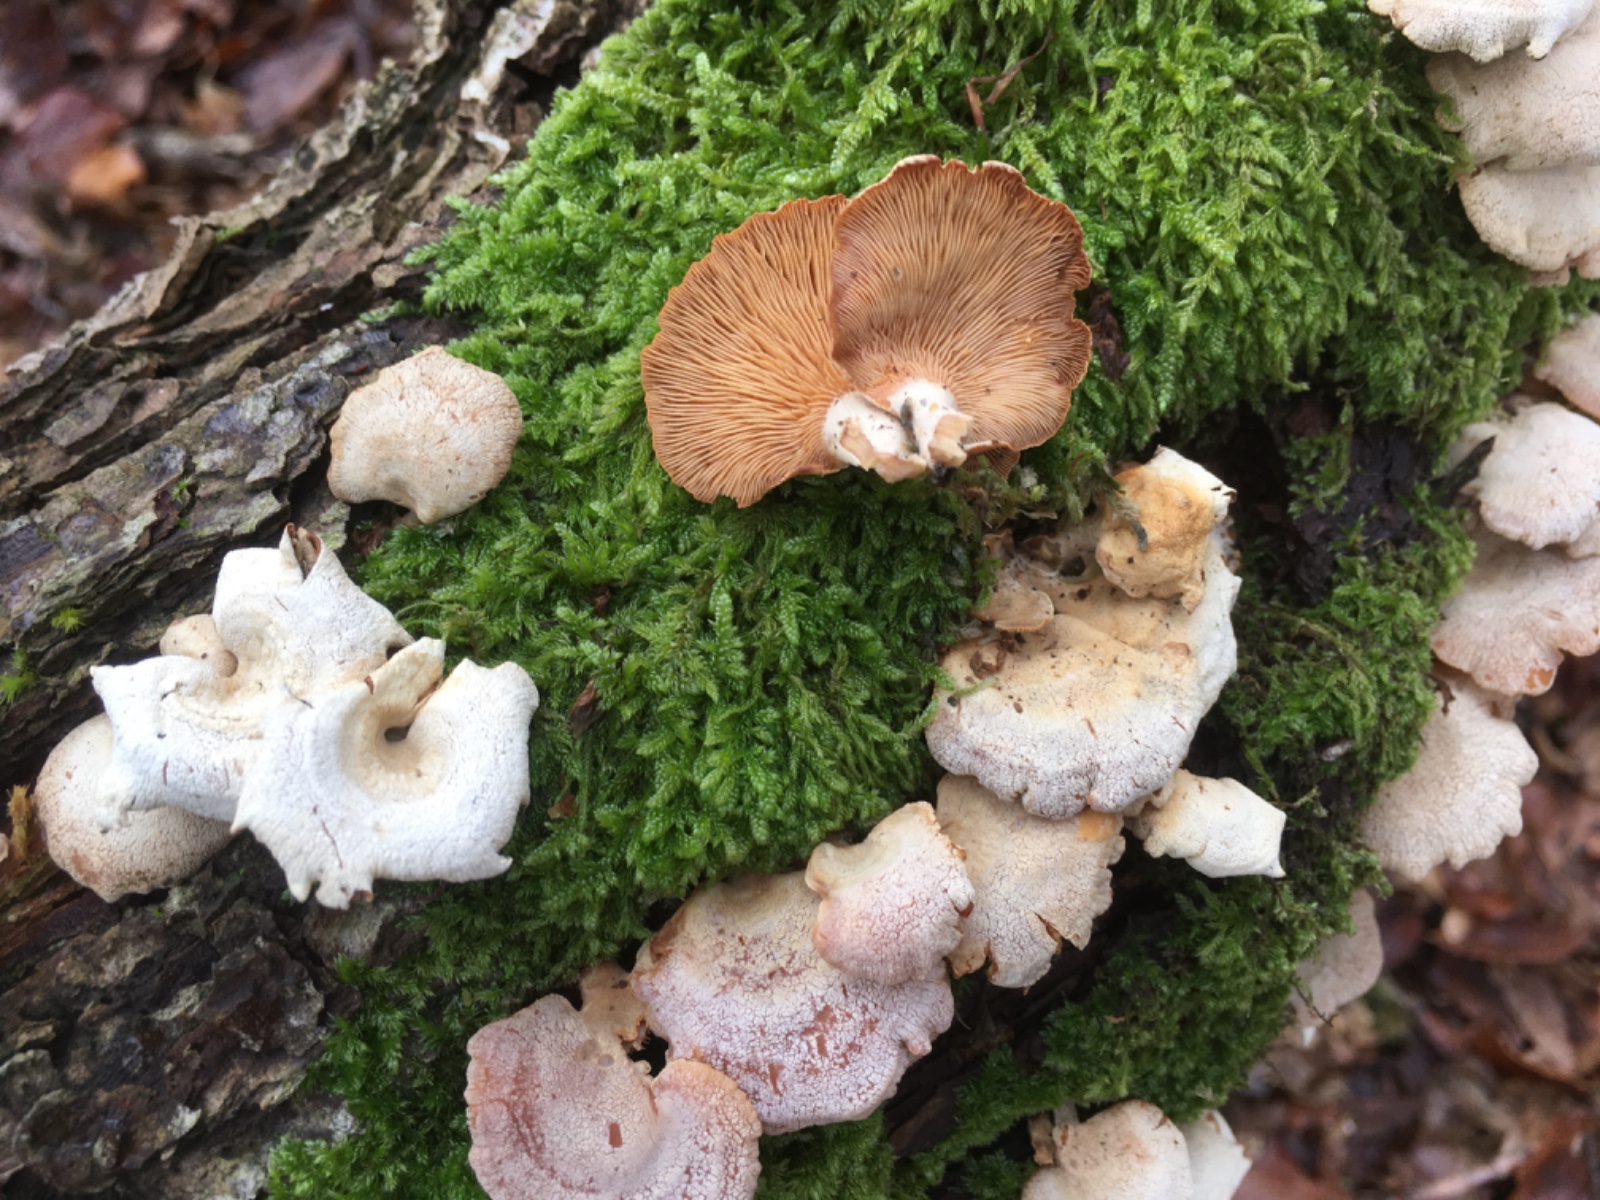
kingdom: Fungi
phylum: Basidiomycota
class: Agaricomycetes
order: Agaricales
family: Mycenaceae
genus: Panellus
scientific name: Panellus stipticus
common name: kliddet epaulethat
